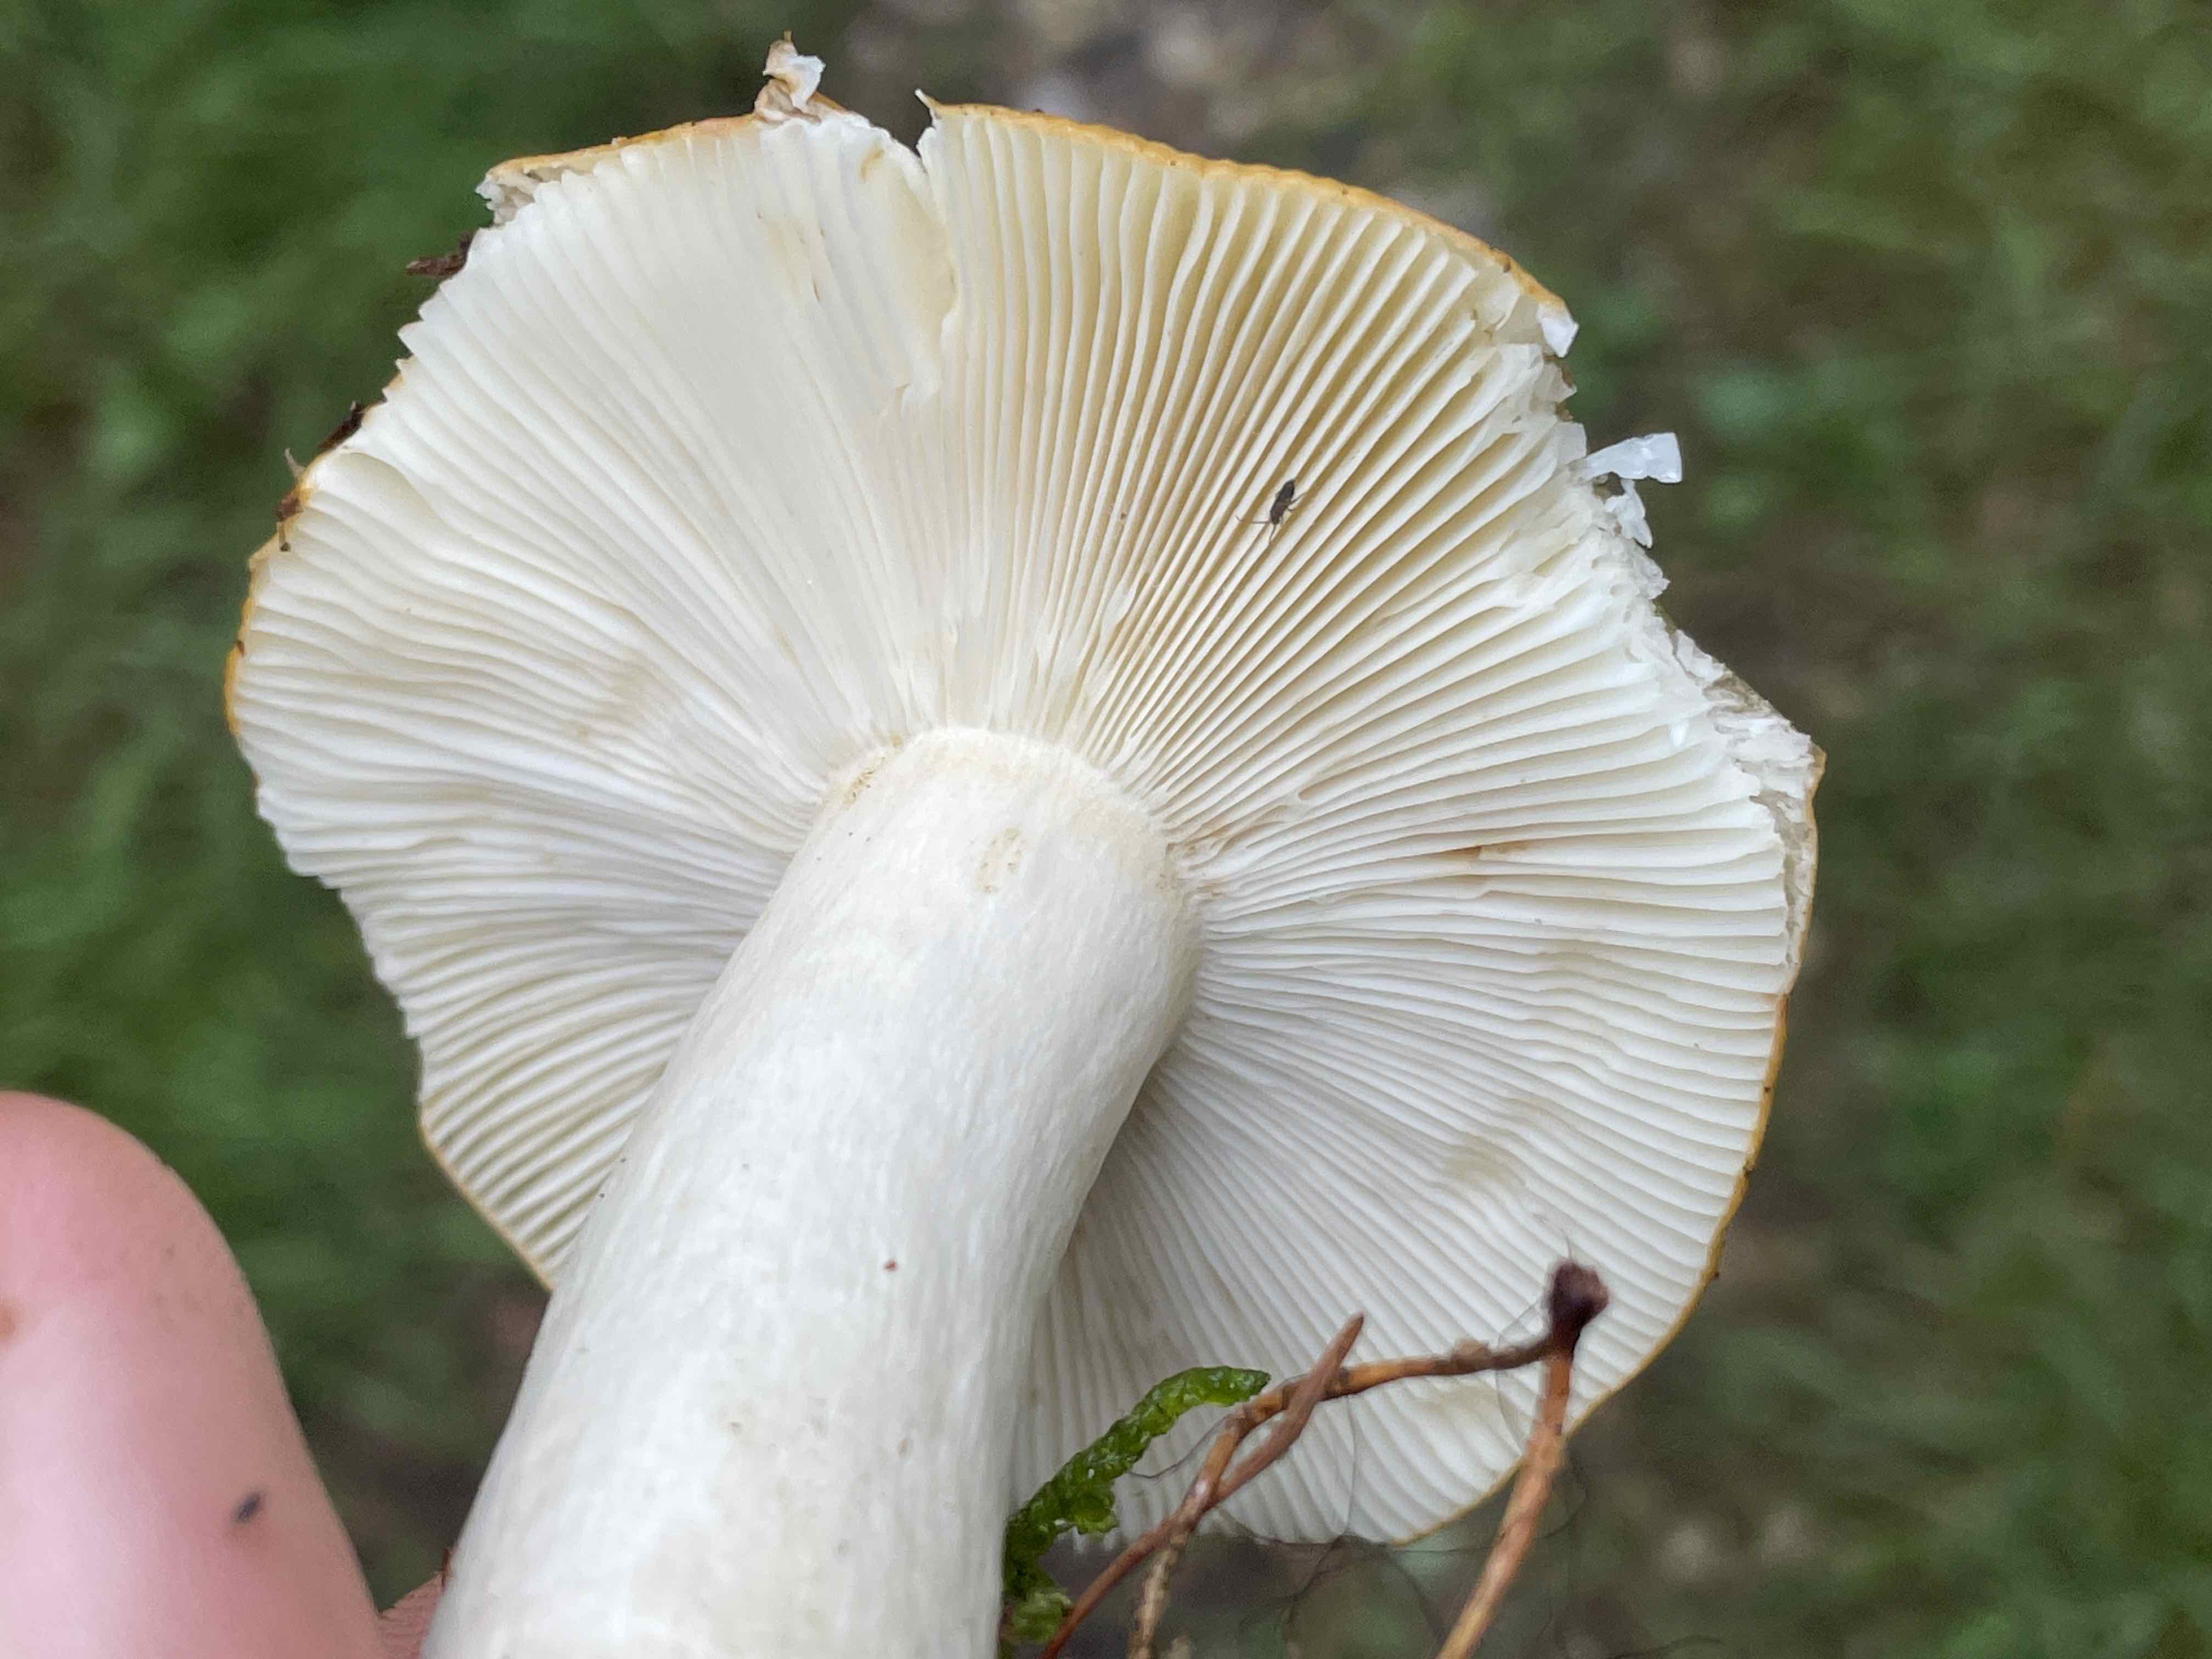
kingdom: Fungi
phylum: Basidiomycota
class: Agaricomycetes
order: Russulales
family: Russulaceae
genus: Russula
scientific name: Russula decolorans
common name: afblegende skørhat
